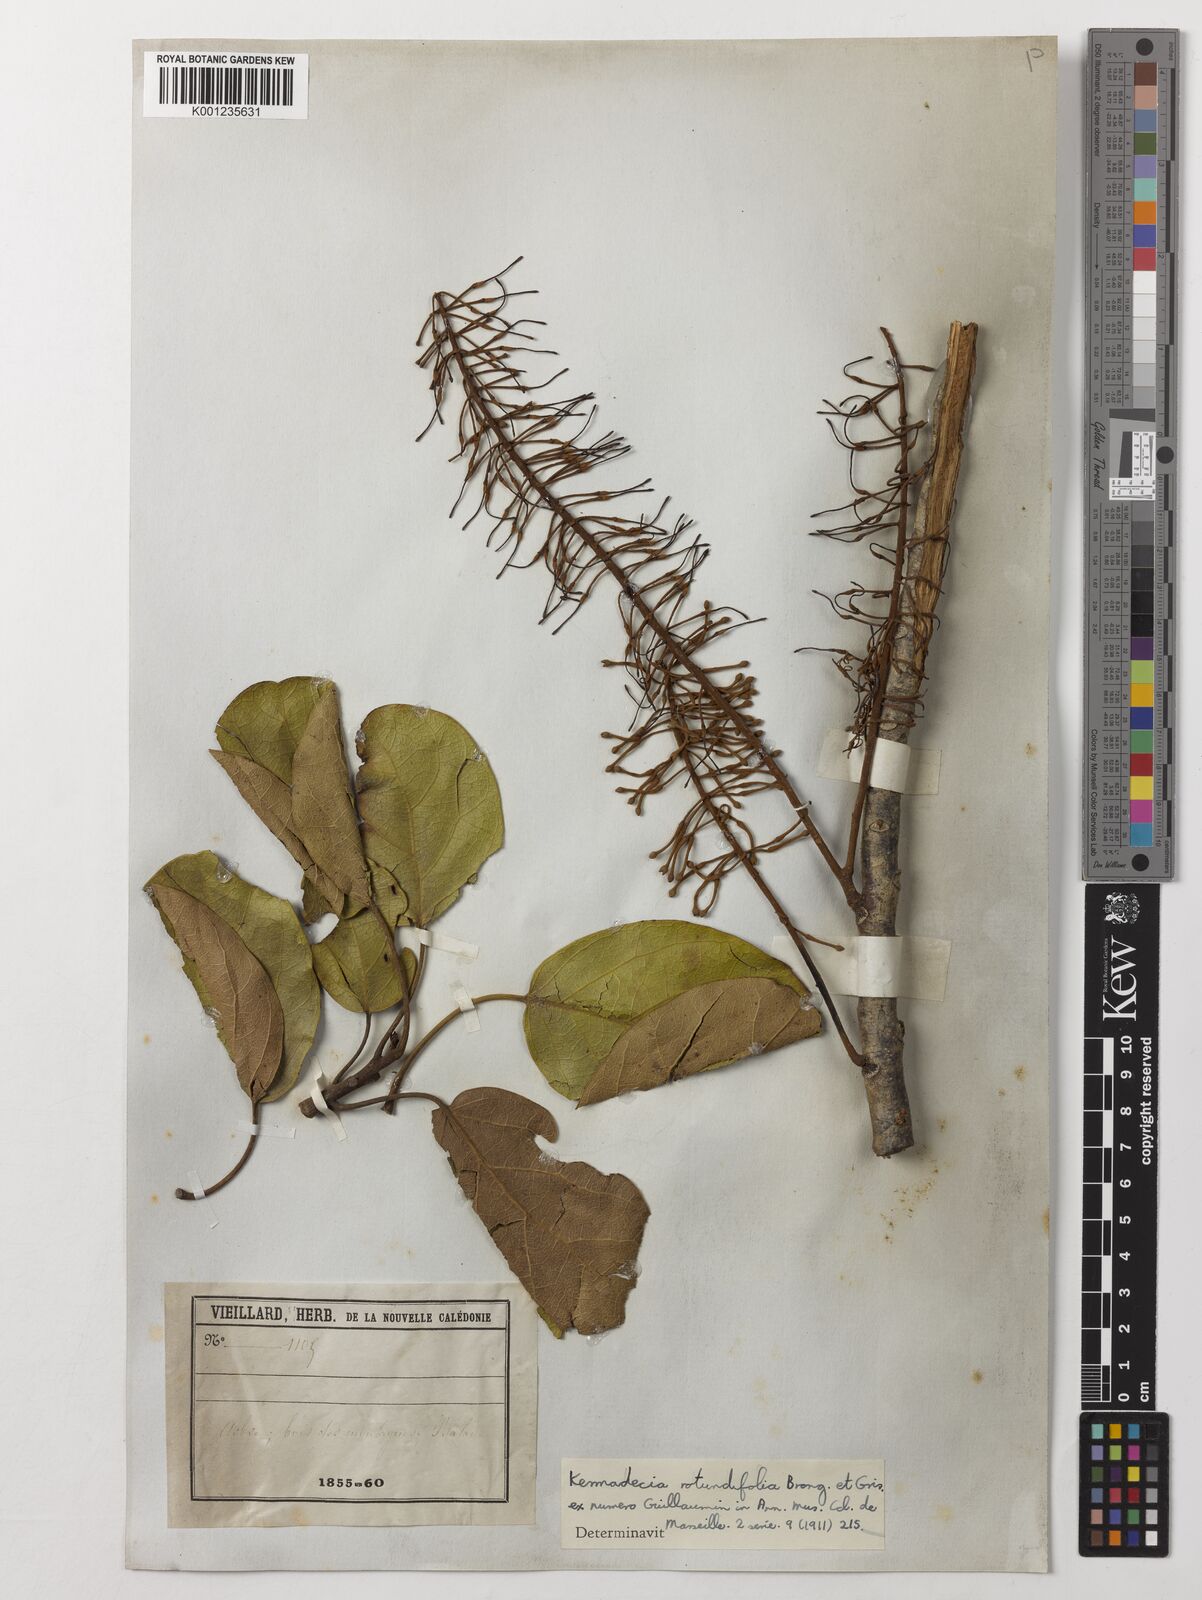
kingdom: Plantae
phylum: Tracheophyta
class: Magnoliopsida
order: Proteales
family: Proteaceae
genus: Kermadecia
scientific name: Kermadecia rotundifolia
